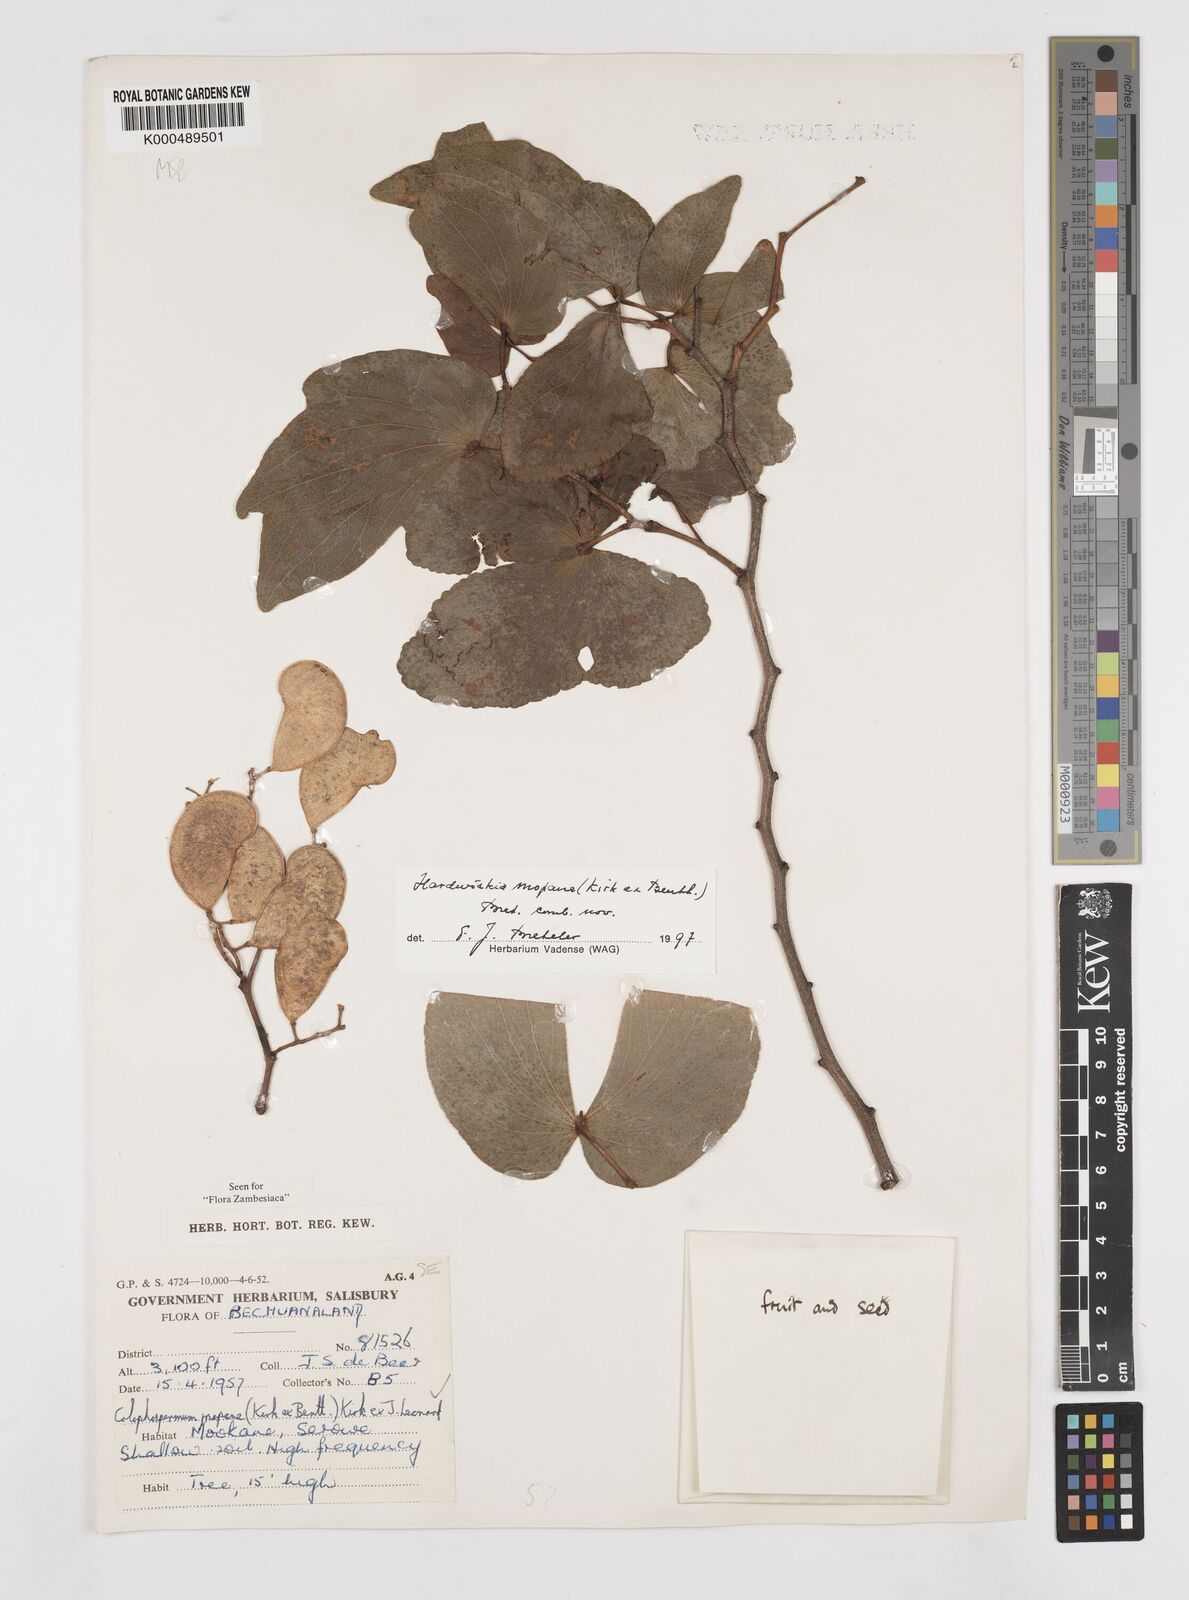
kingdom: Plantae
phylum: Tracheophyta
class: Magnoliopsida
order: Fabales
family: Fabaceae
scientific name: Fabaceae
